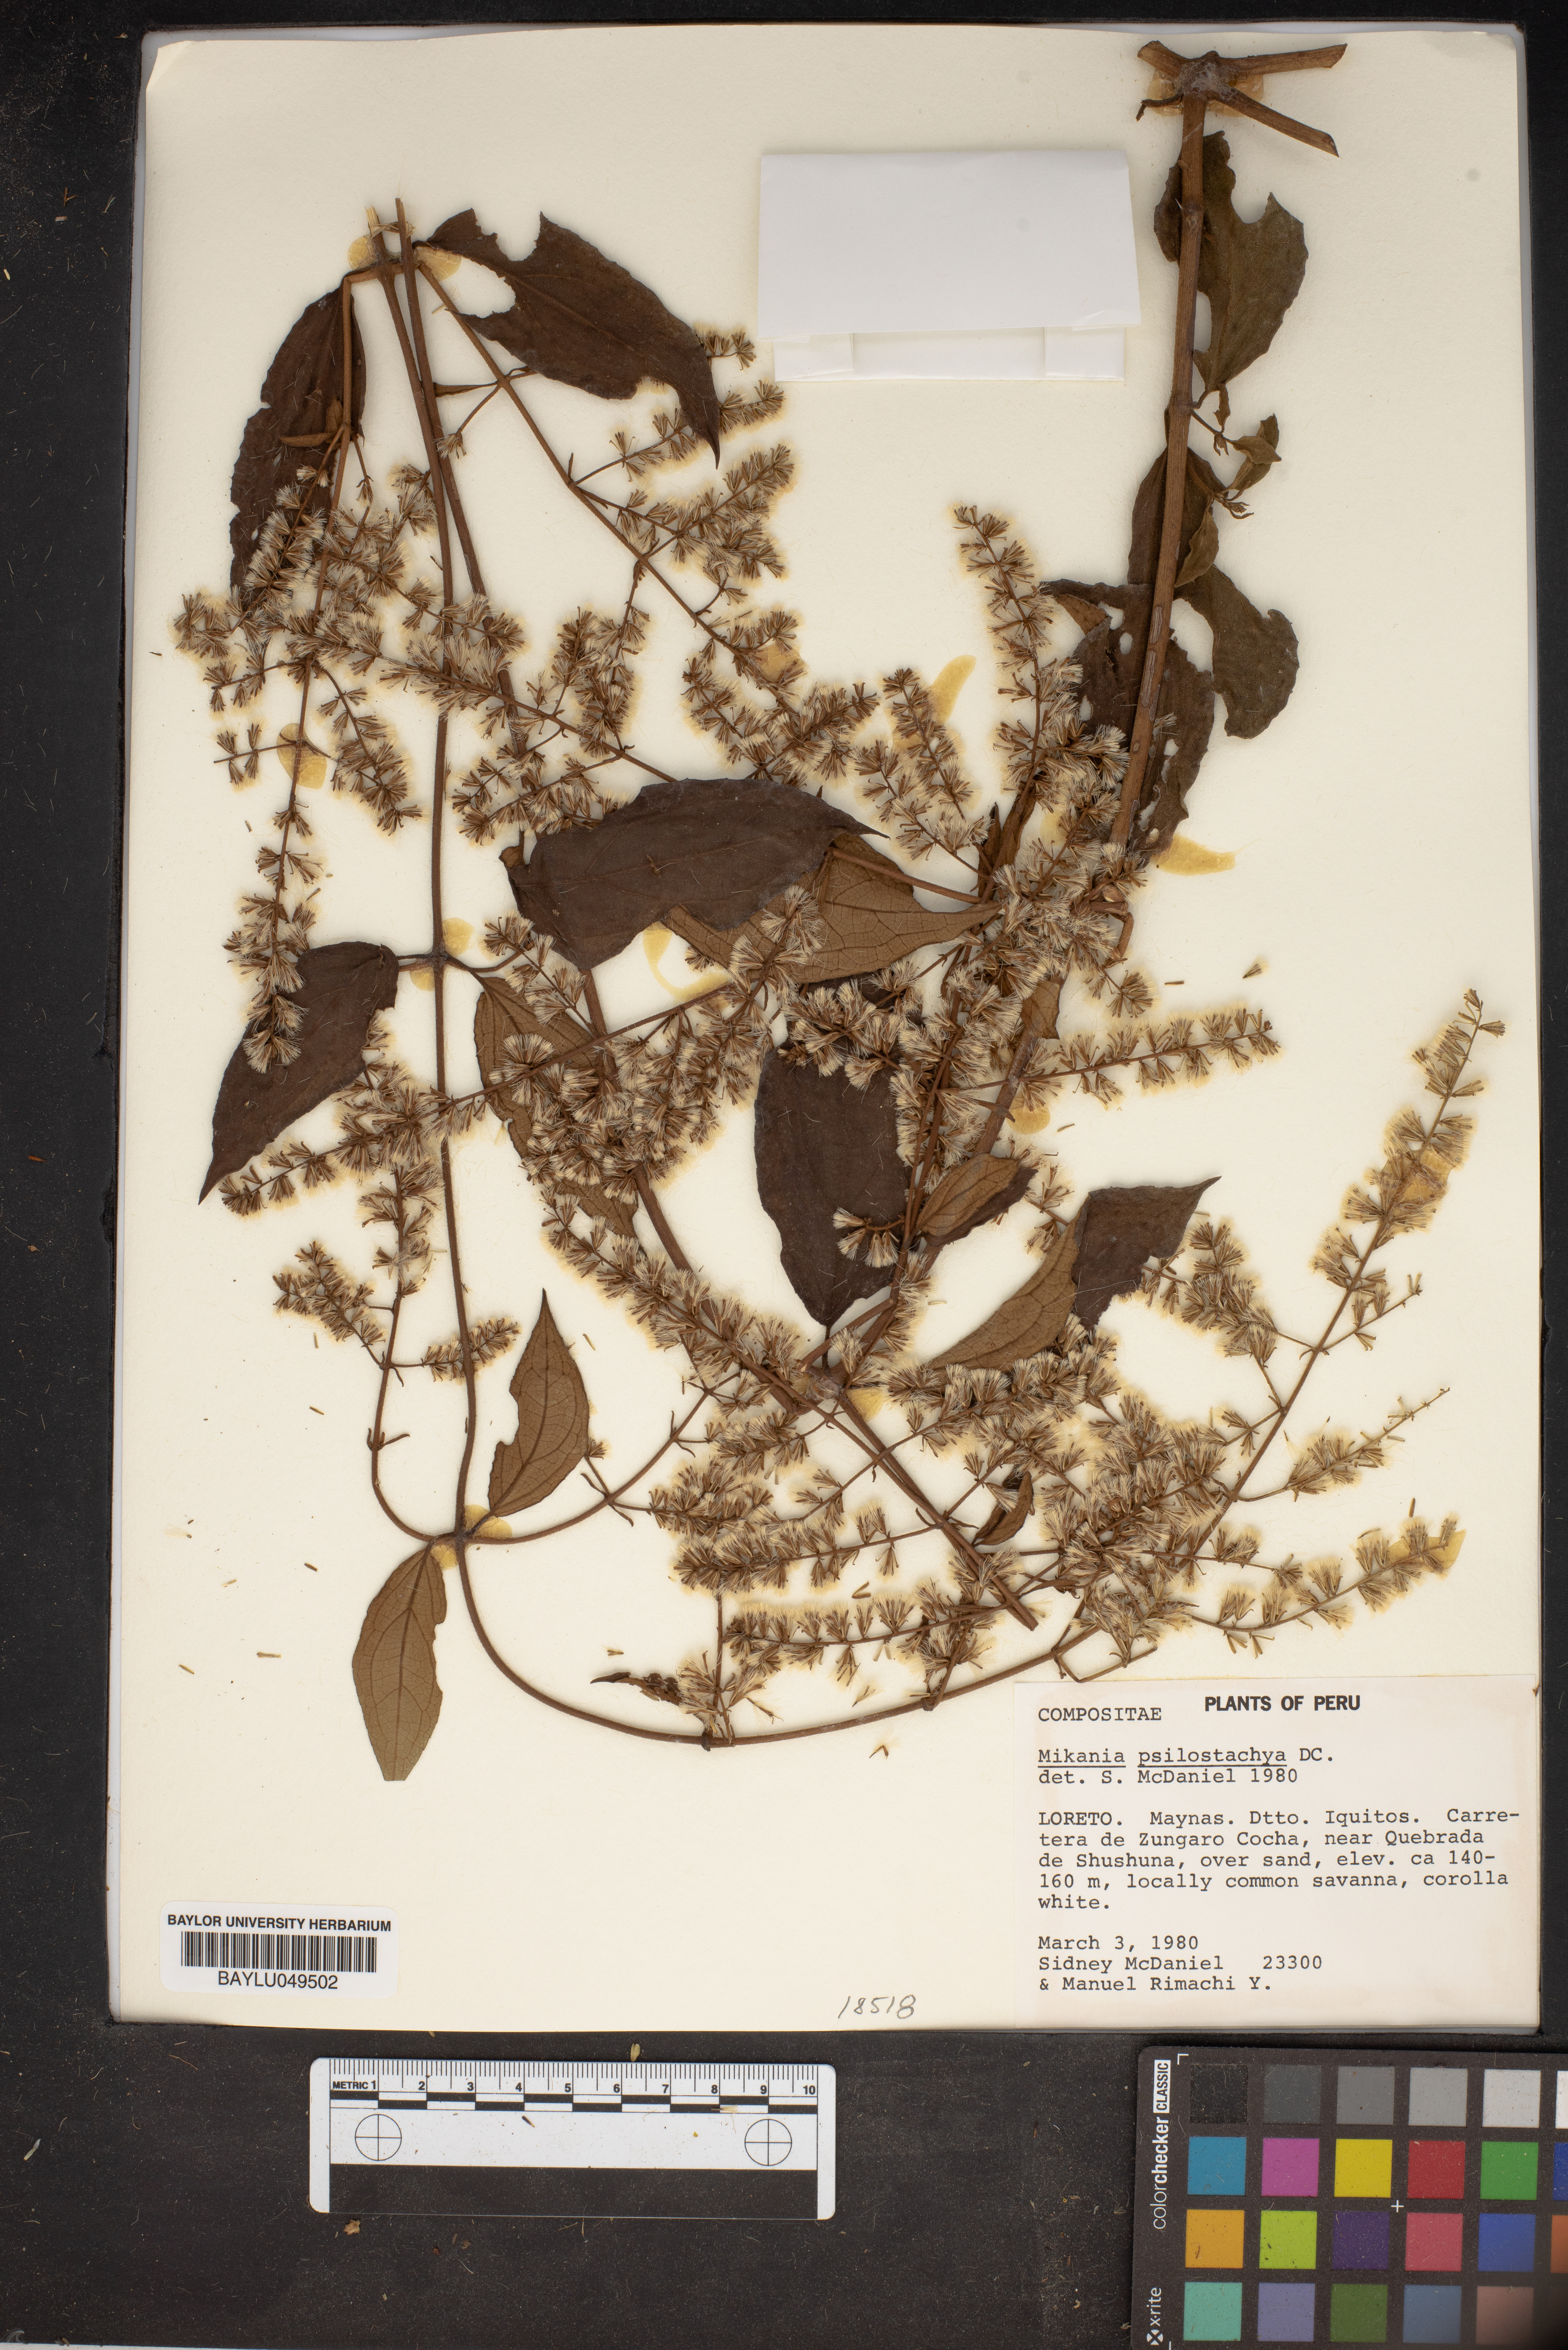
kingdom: Plantae
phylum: Tracheophyta
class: Magnoliopsida
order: Asterales
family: Asteraceae
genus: Mikania
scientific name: Mikania psilostachya
